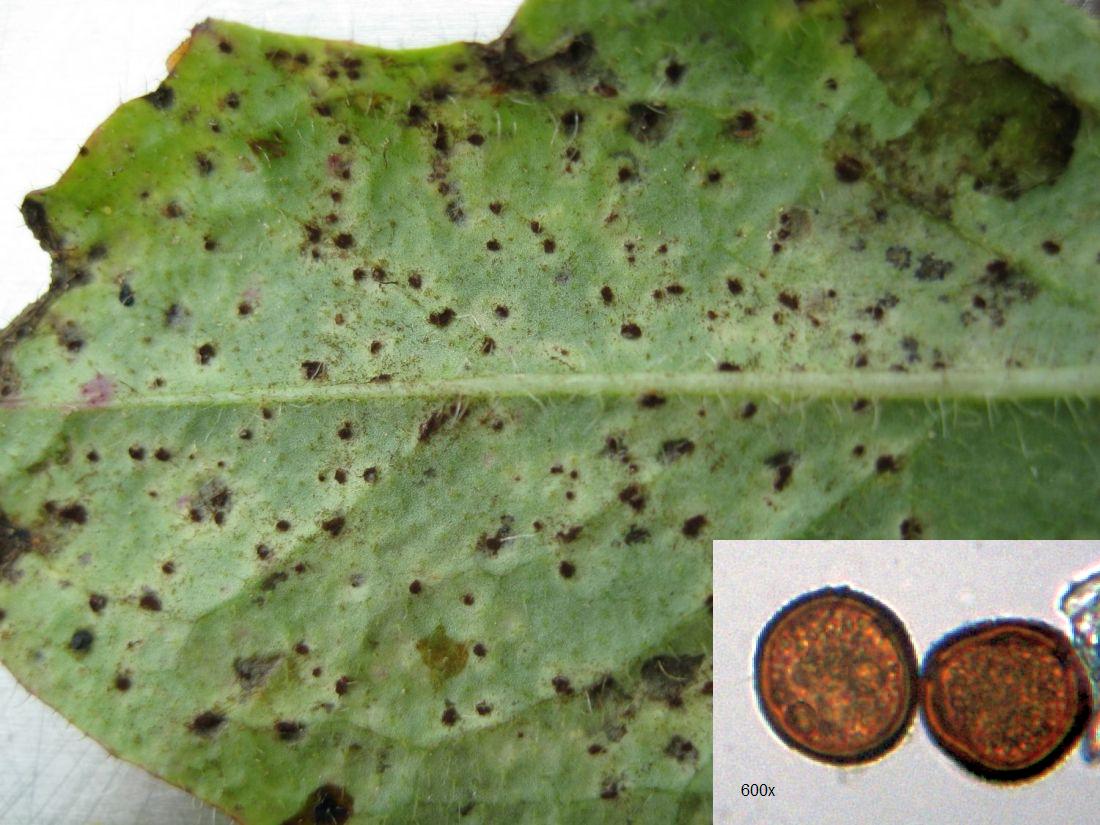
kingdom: Fungi
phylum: Basidiomycota
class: Pucciniomycetes
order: Pucciniales
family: Pucciniaceae
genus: Puccinia
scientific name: Puccinia hieracii
